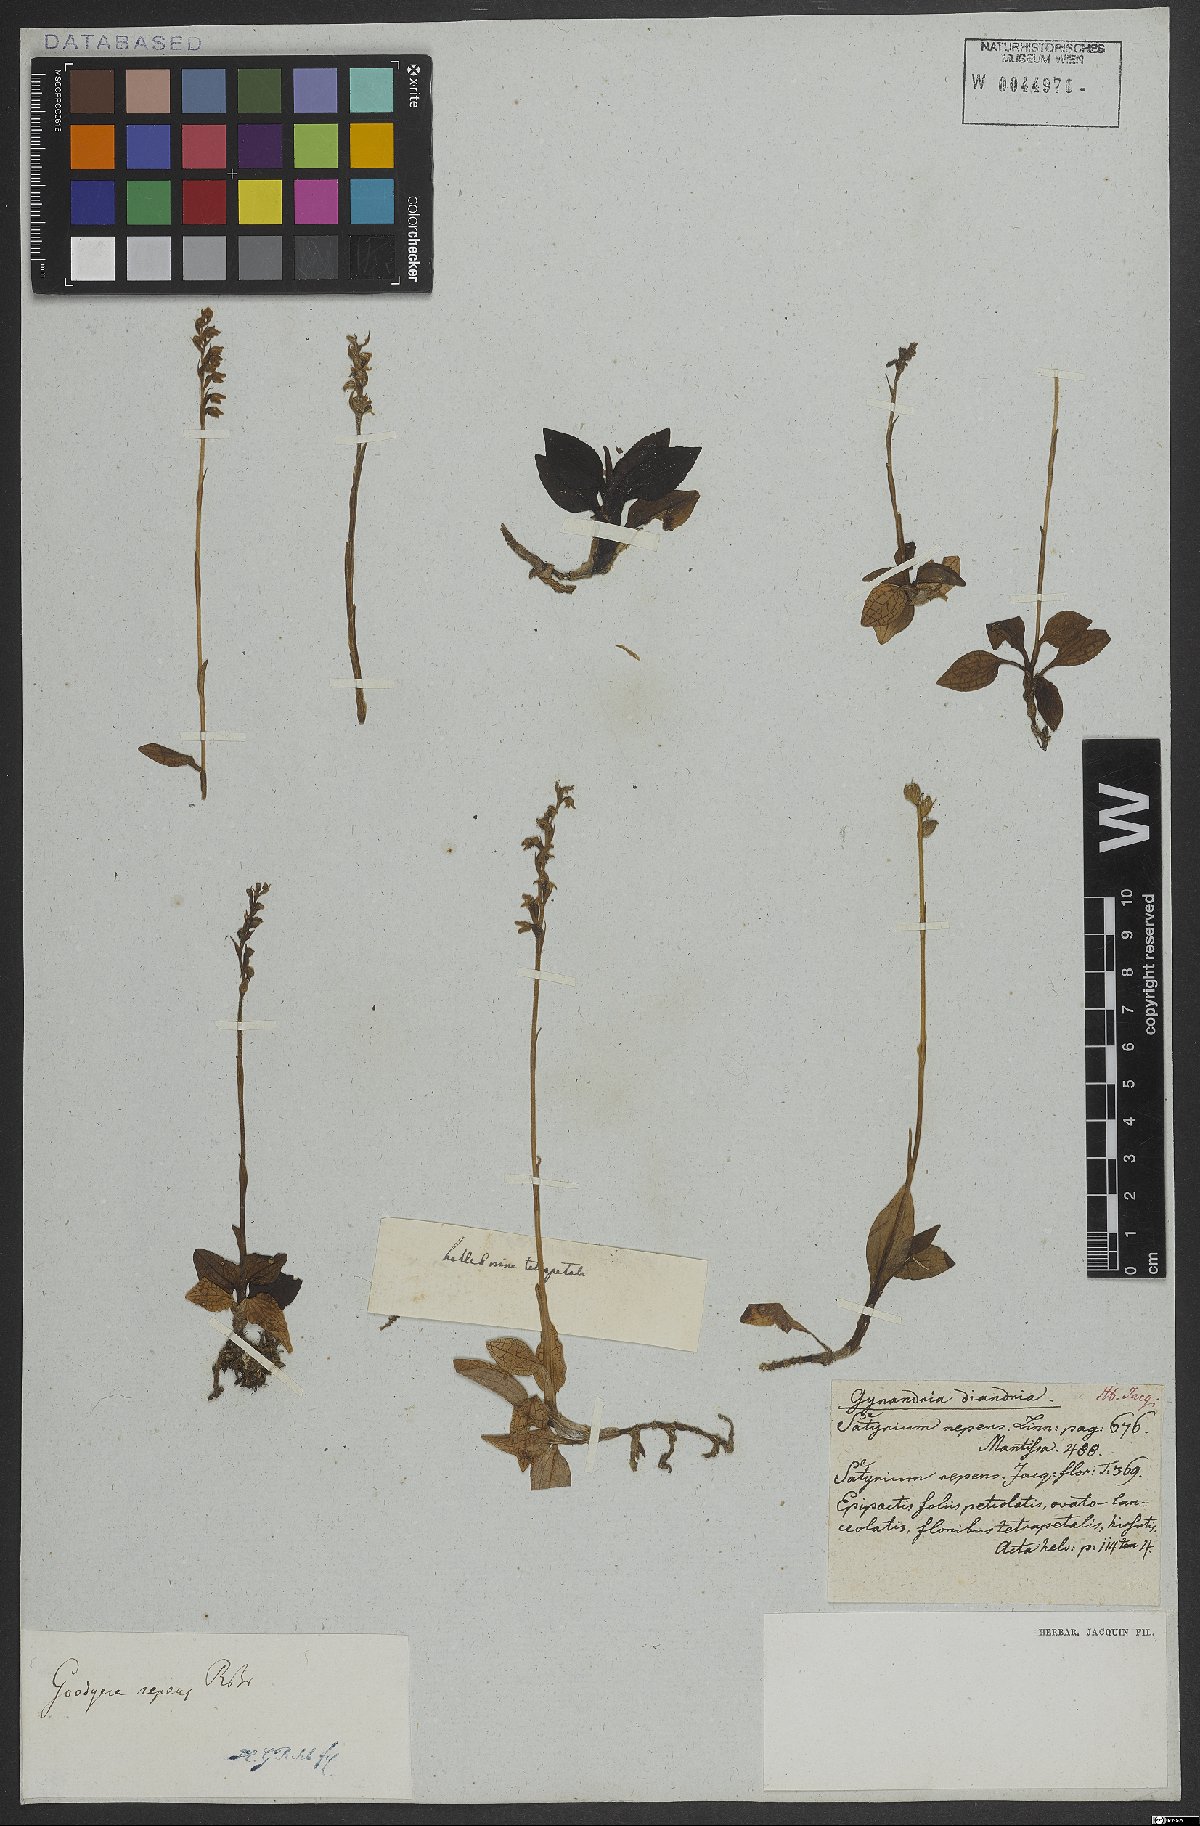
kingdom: Plantae
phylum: Tracheophyta
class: Liliopsida
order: Asparagales
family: Orchidaceae
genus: Goodyera
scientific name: Goodyera repens
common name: Creeping lady's-tresses
